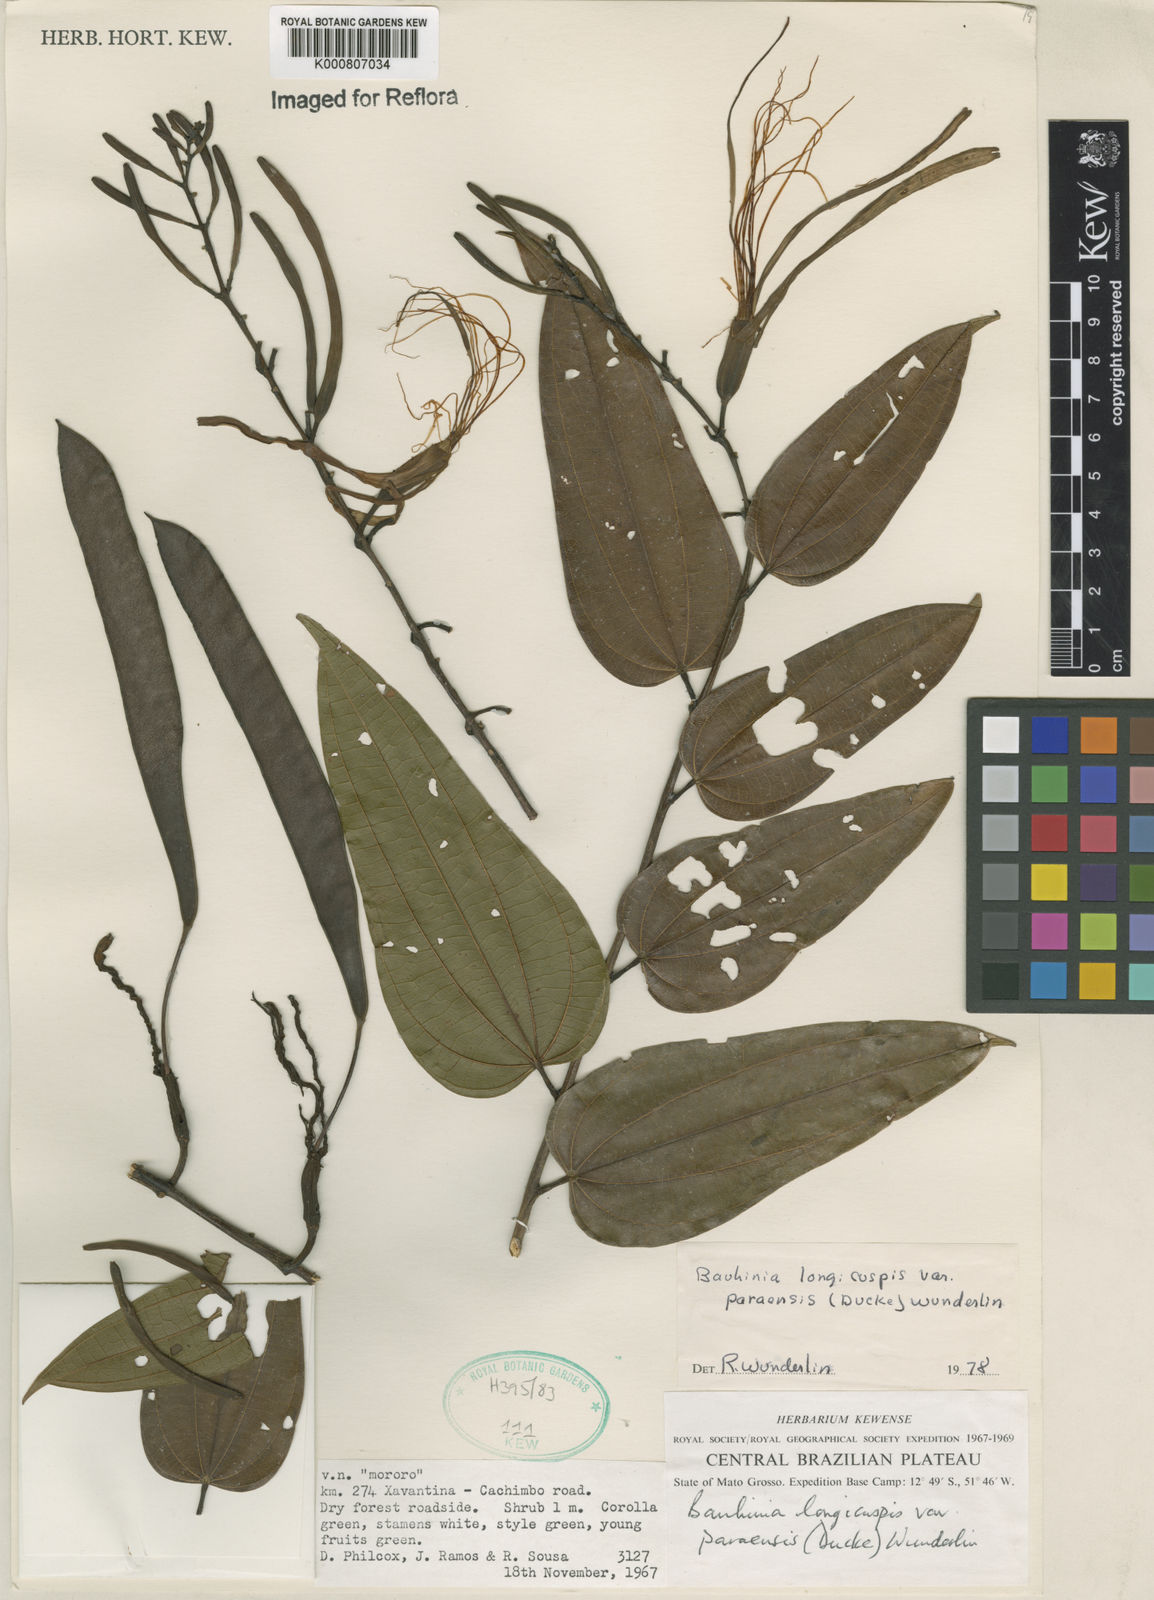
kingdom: Plantae
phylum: Tracheophyta
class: Magnoliopsida
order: Fabales
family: Fabaceae
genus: Bauhinia
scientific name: Bauhinia longicuspis
